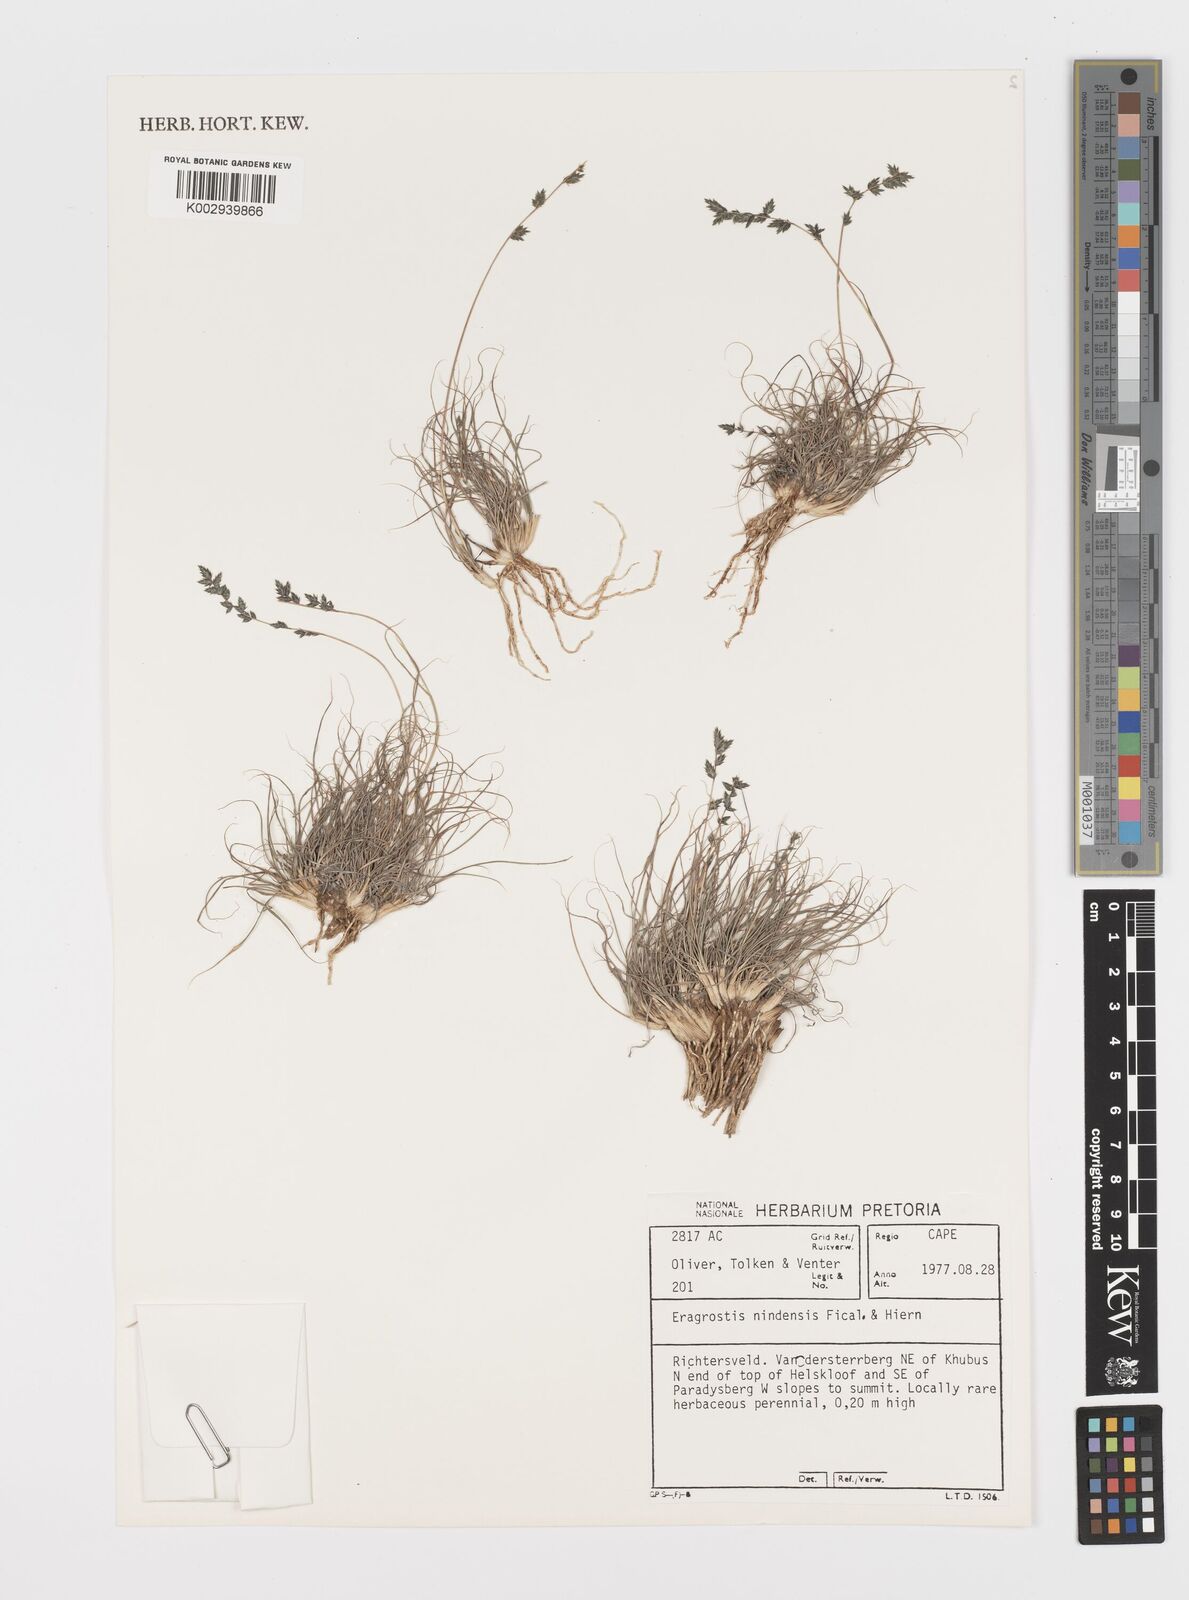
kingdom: Plantae
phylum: Tracheophyta
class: Liliopsida
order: Poales
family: Poaceae
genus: Eragrostis
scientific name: Eragrostis nindensis
